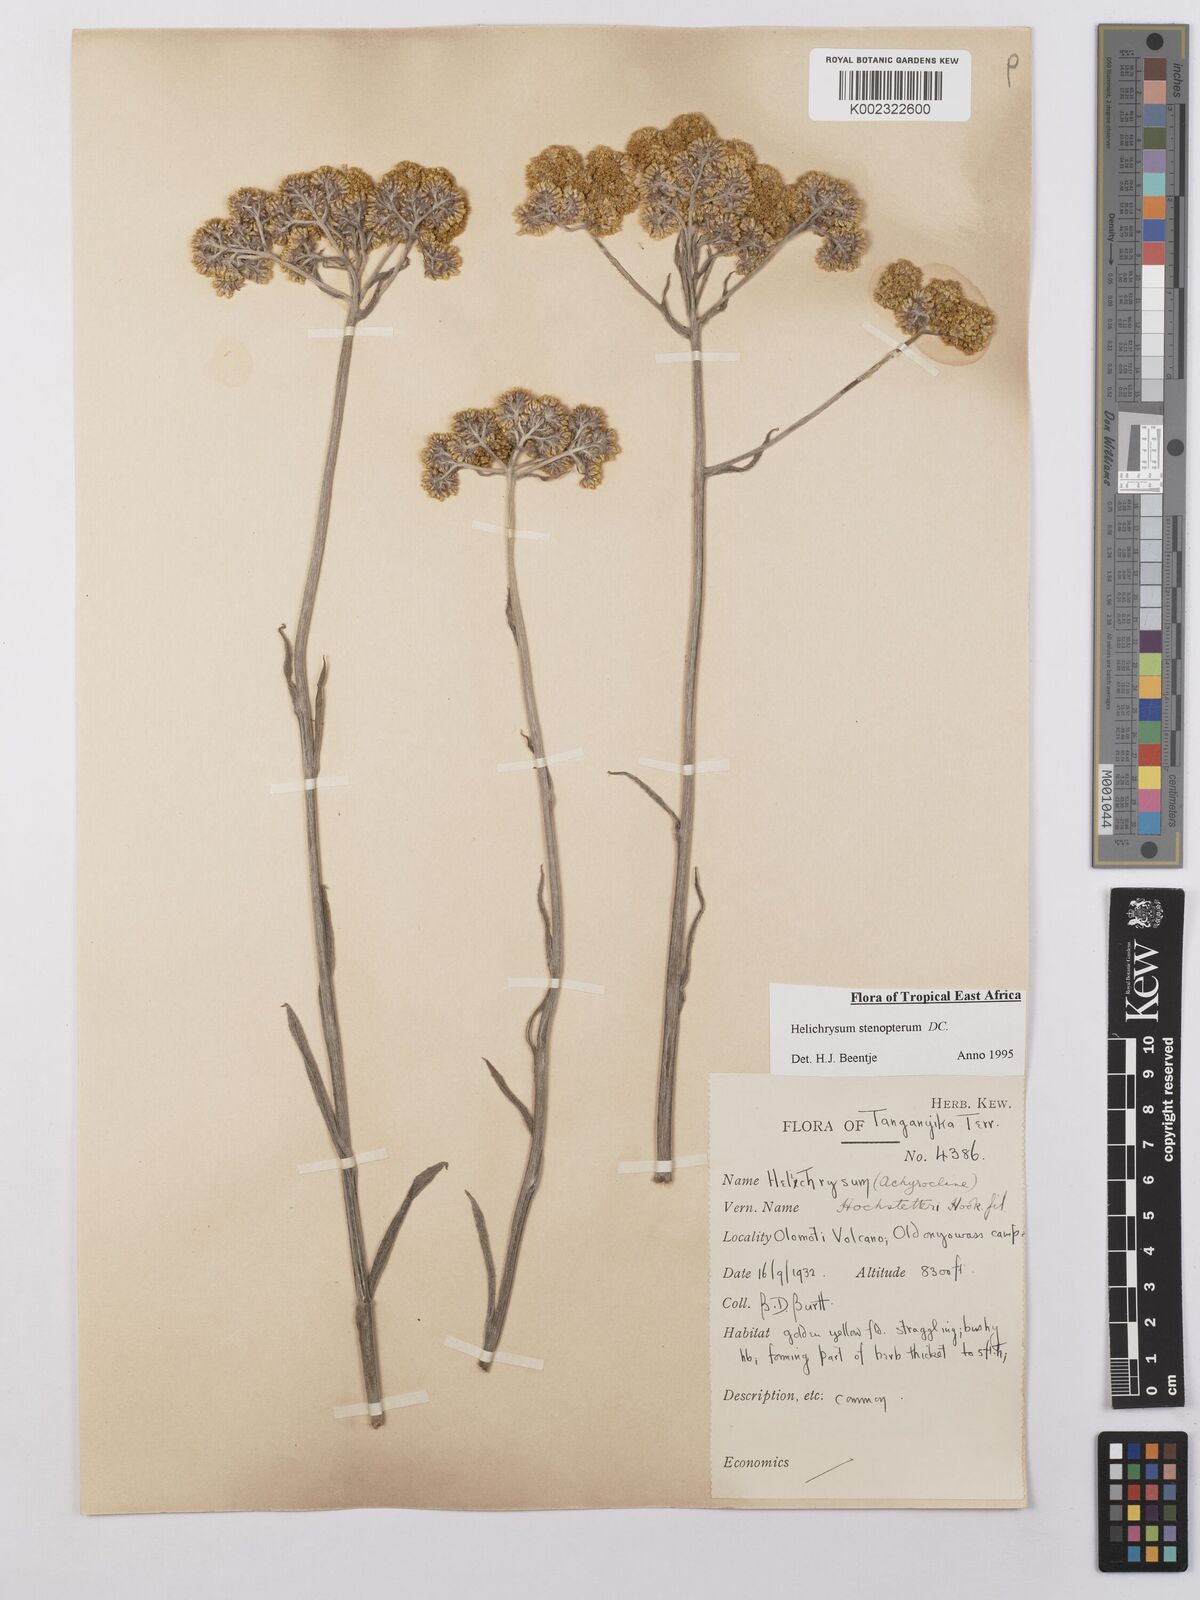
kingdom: Plantae
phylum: Tracheophyta
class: Magnoliopsida
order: Asterales
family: Asteraceae
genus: Helichrysum
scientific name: Helichrysum stenopterum
